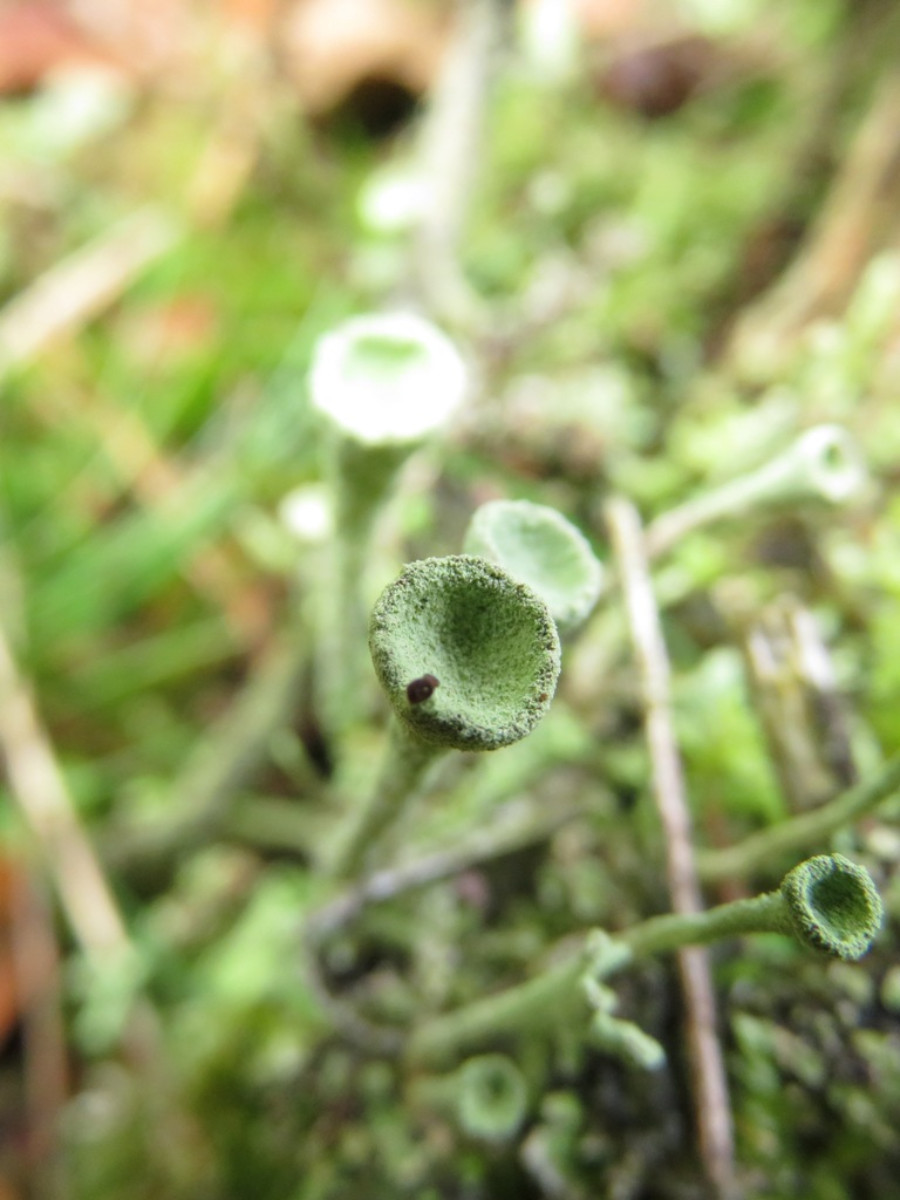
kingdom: Fungi
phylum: Ascomycota
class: Lecanoromycetes
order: Lecanorales
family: Cladoniaceae
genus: Cladonia
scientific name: Cladonia fimbriata
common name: bleggrøn bægerlav
